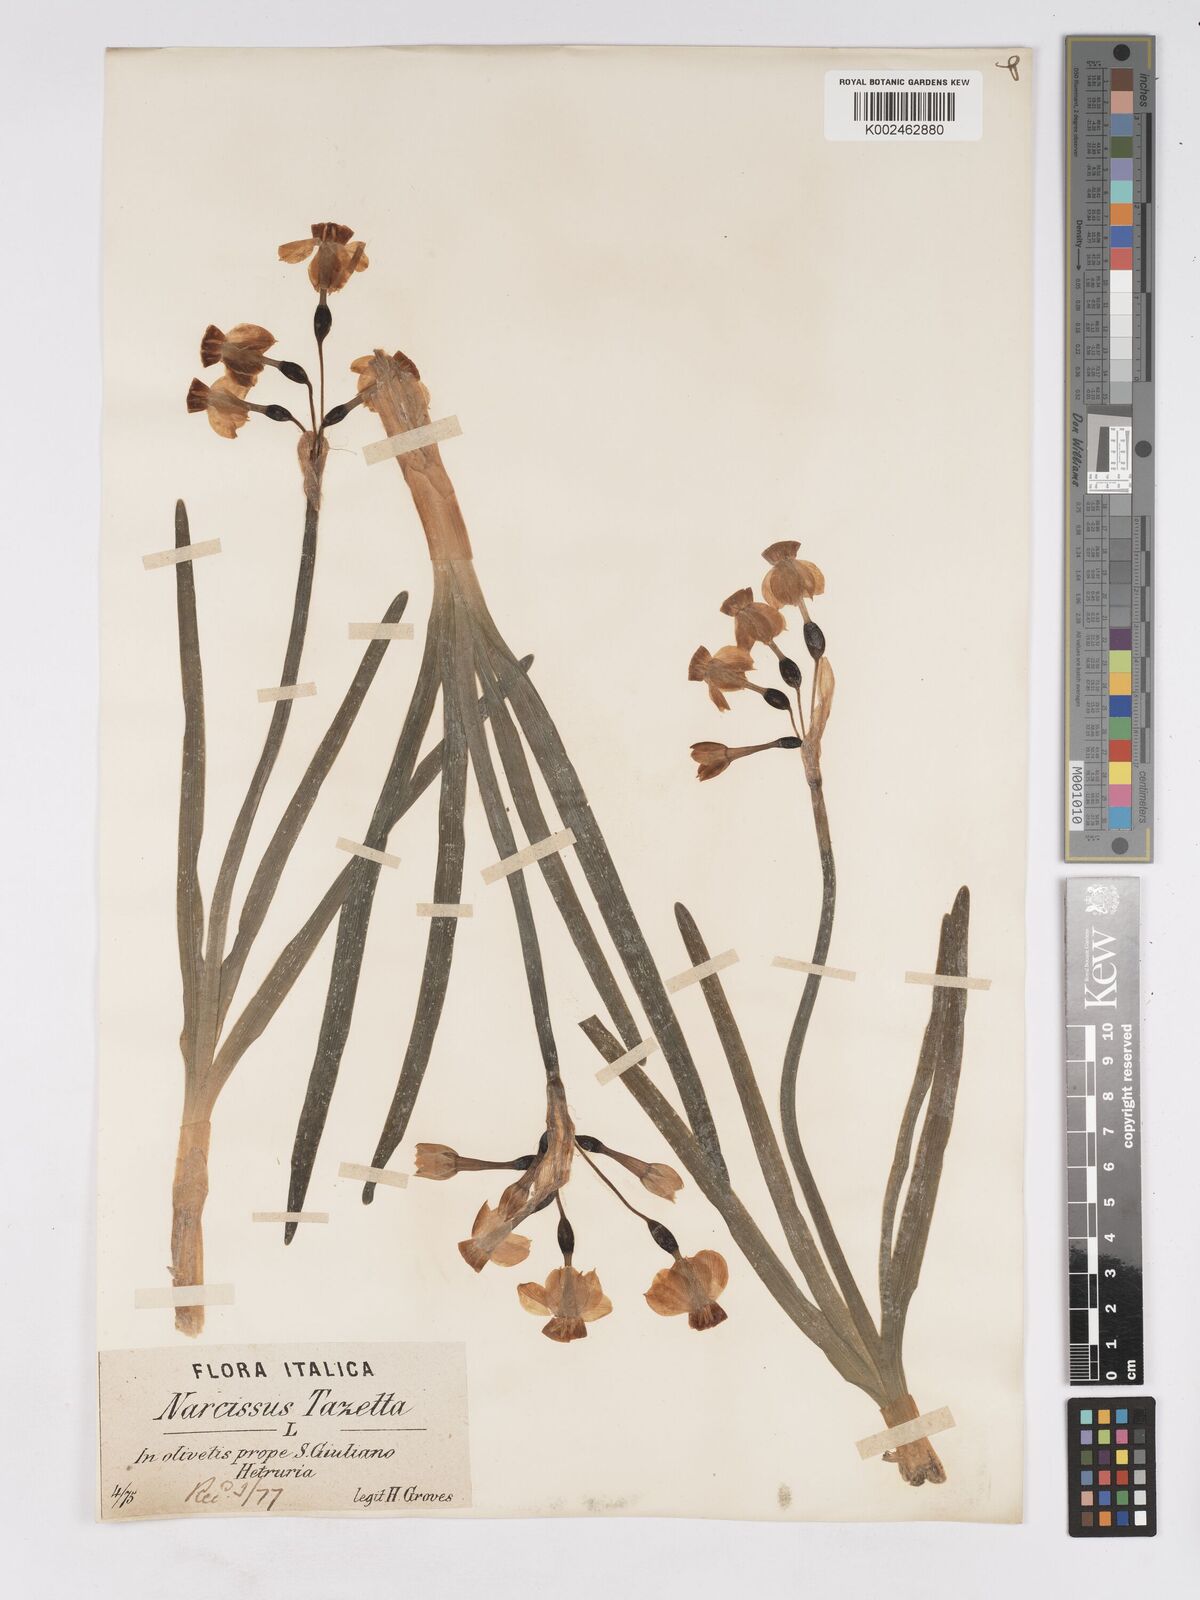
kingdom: Plantae
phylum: Tracheophyta
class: Liliopsida
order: Asparagales
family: Amaryllidaceae
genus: Narcissus
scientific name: Narcissus
